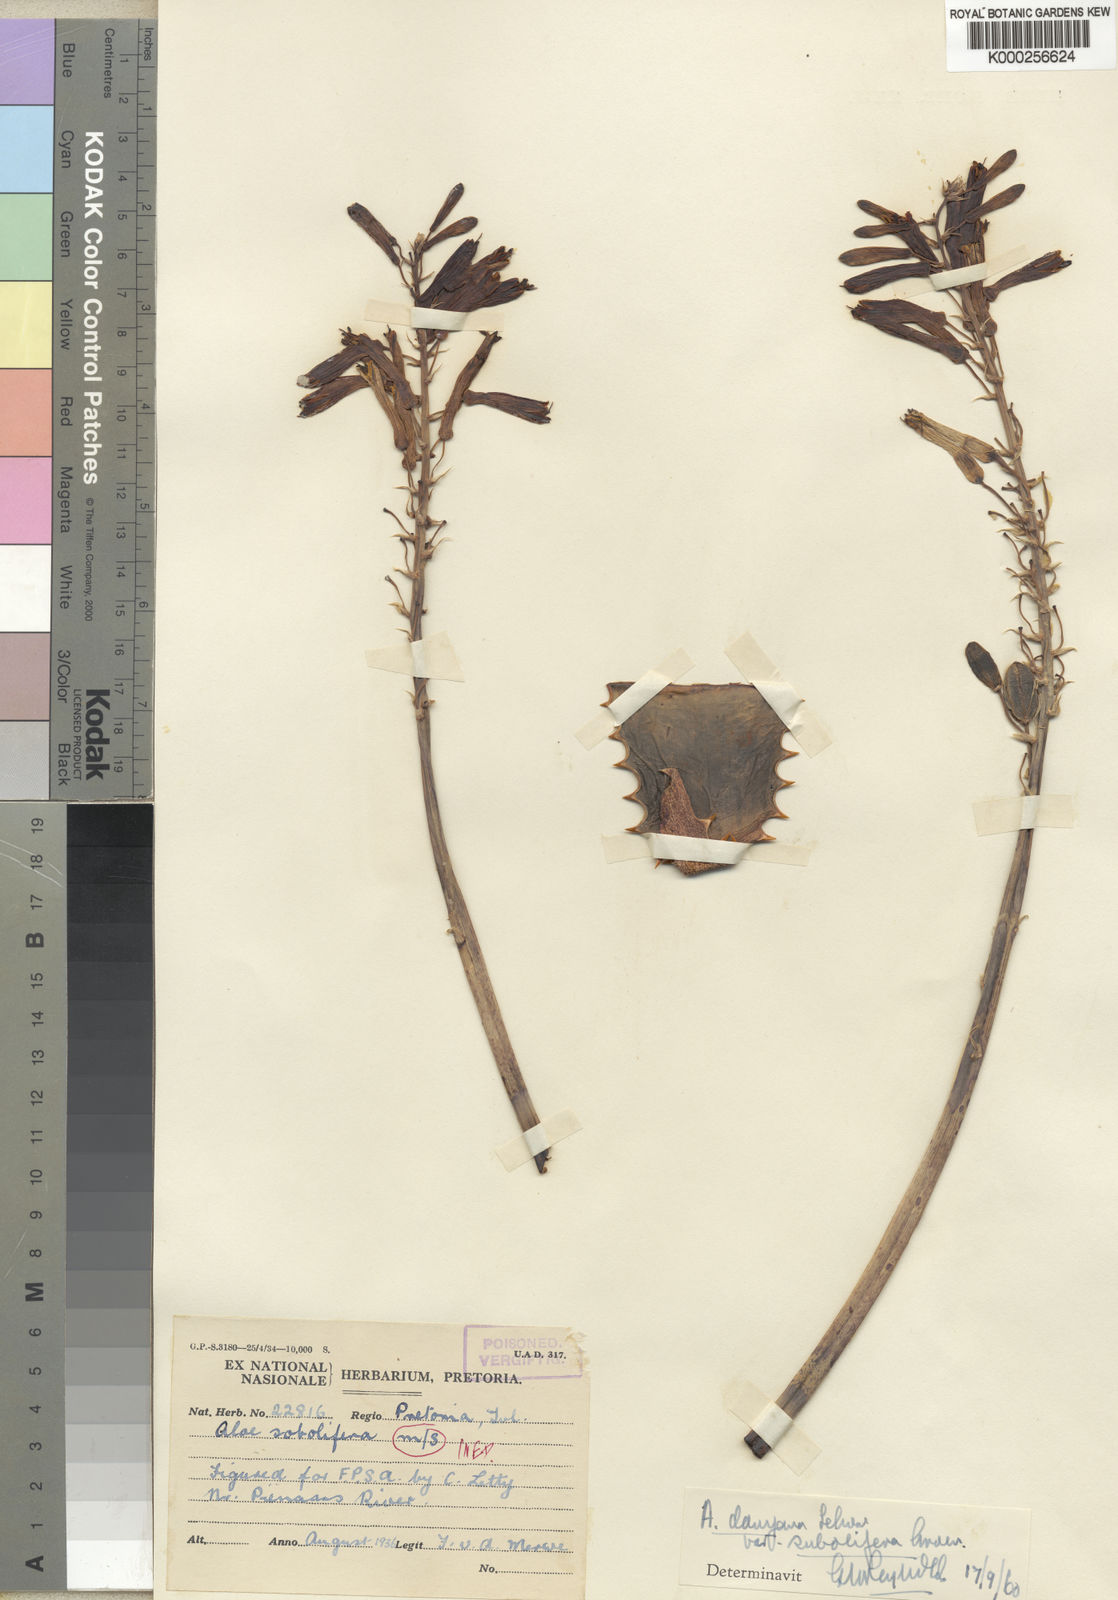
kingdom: Plantae
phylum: Tracheophyta
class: Liliopsida
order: Asparagales
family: Asphodelaceae
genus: Aloe
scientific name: Aloe
